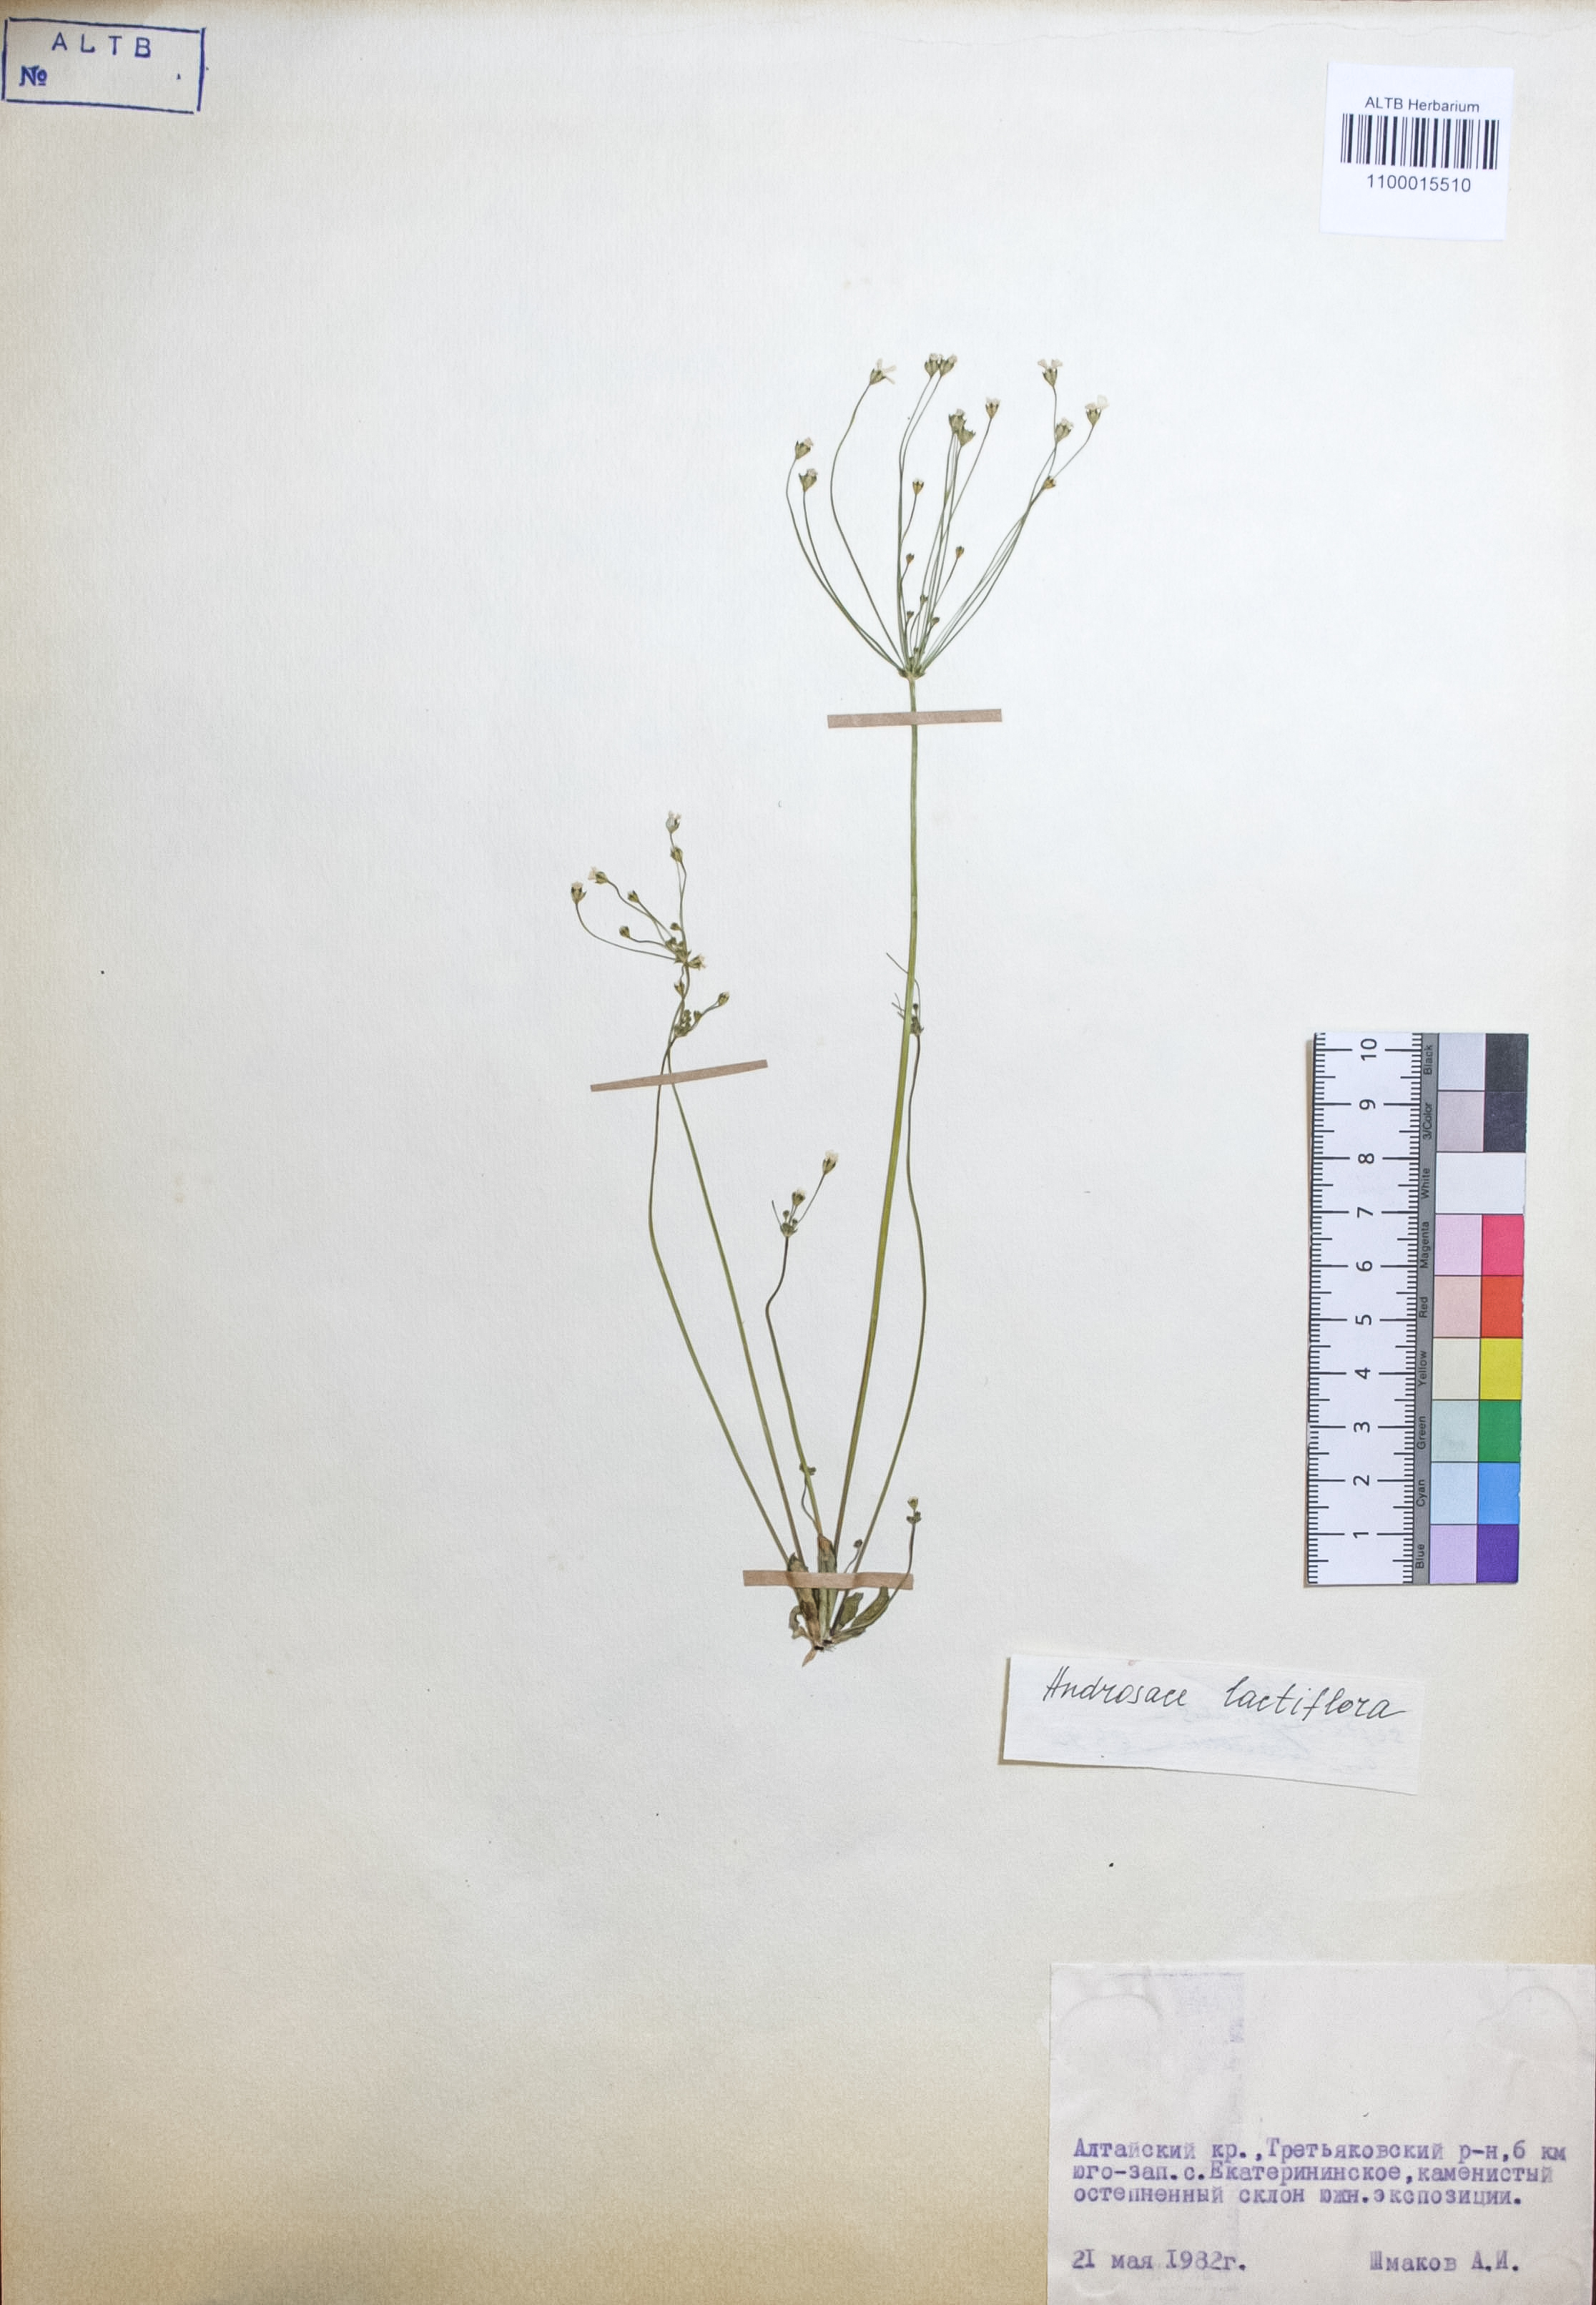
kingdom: Plantae
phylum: Tracheophyta
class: Magnoliopsida
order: Ericales
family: Primulaceae
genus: Androsace
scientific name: Androsace lactiflora
